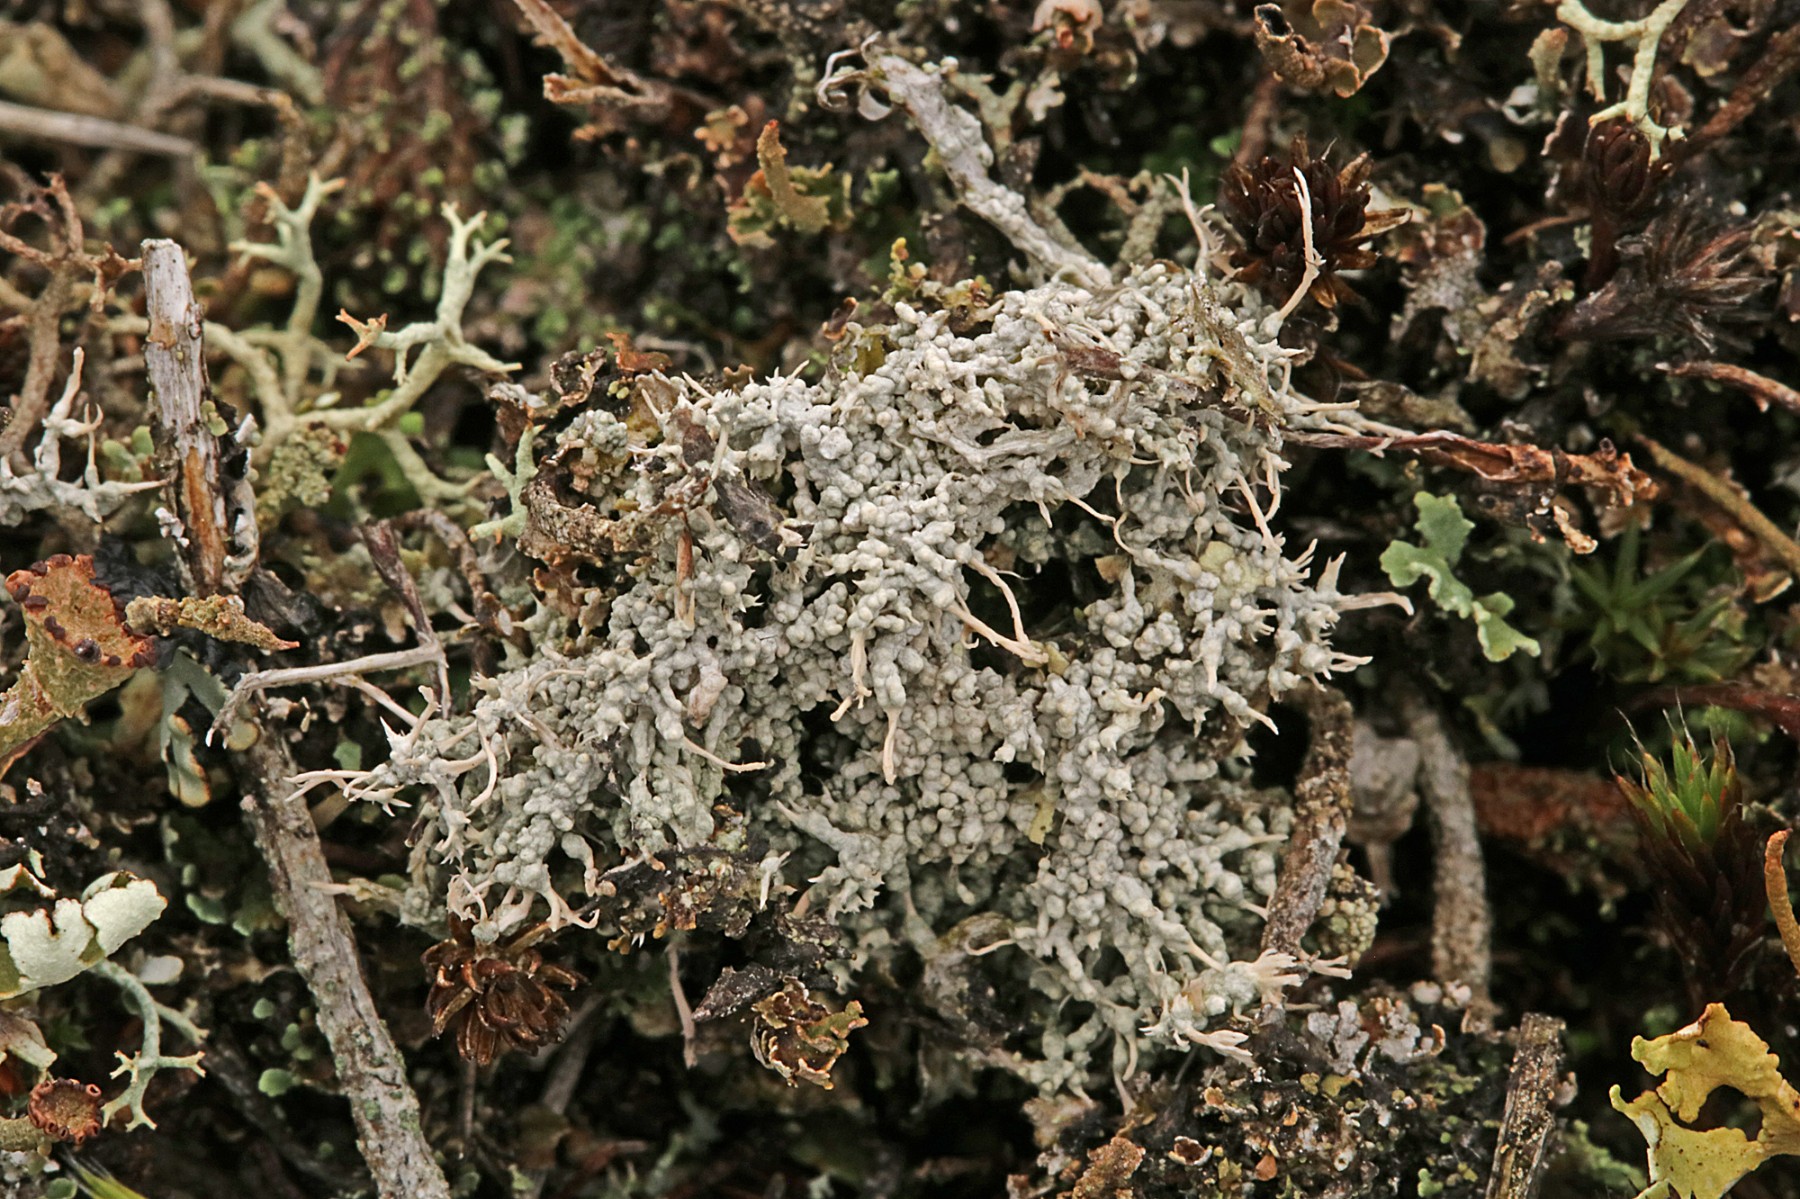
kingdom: Fungi
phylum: Ascomycota
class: Lecanoromycetes
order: Pertusariales
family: Ochrolechiaceae
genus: Ochrolechia
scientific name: Ochrolechia frigida
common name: fjeld-blegskivelav
